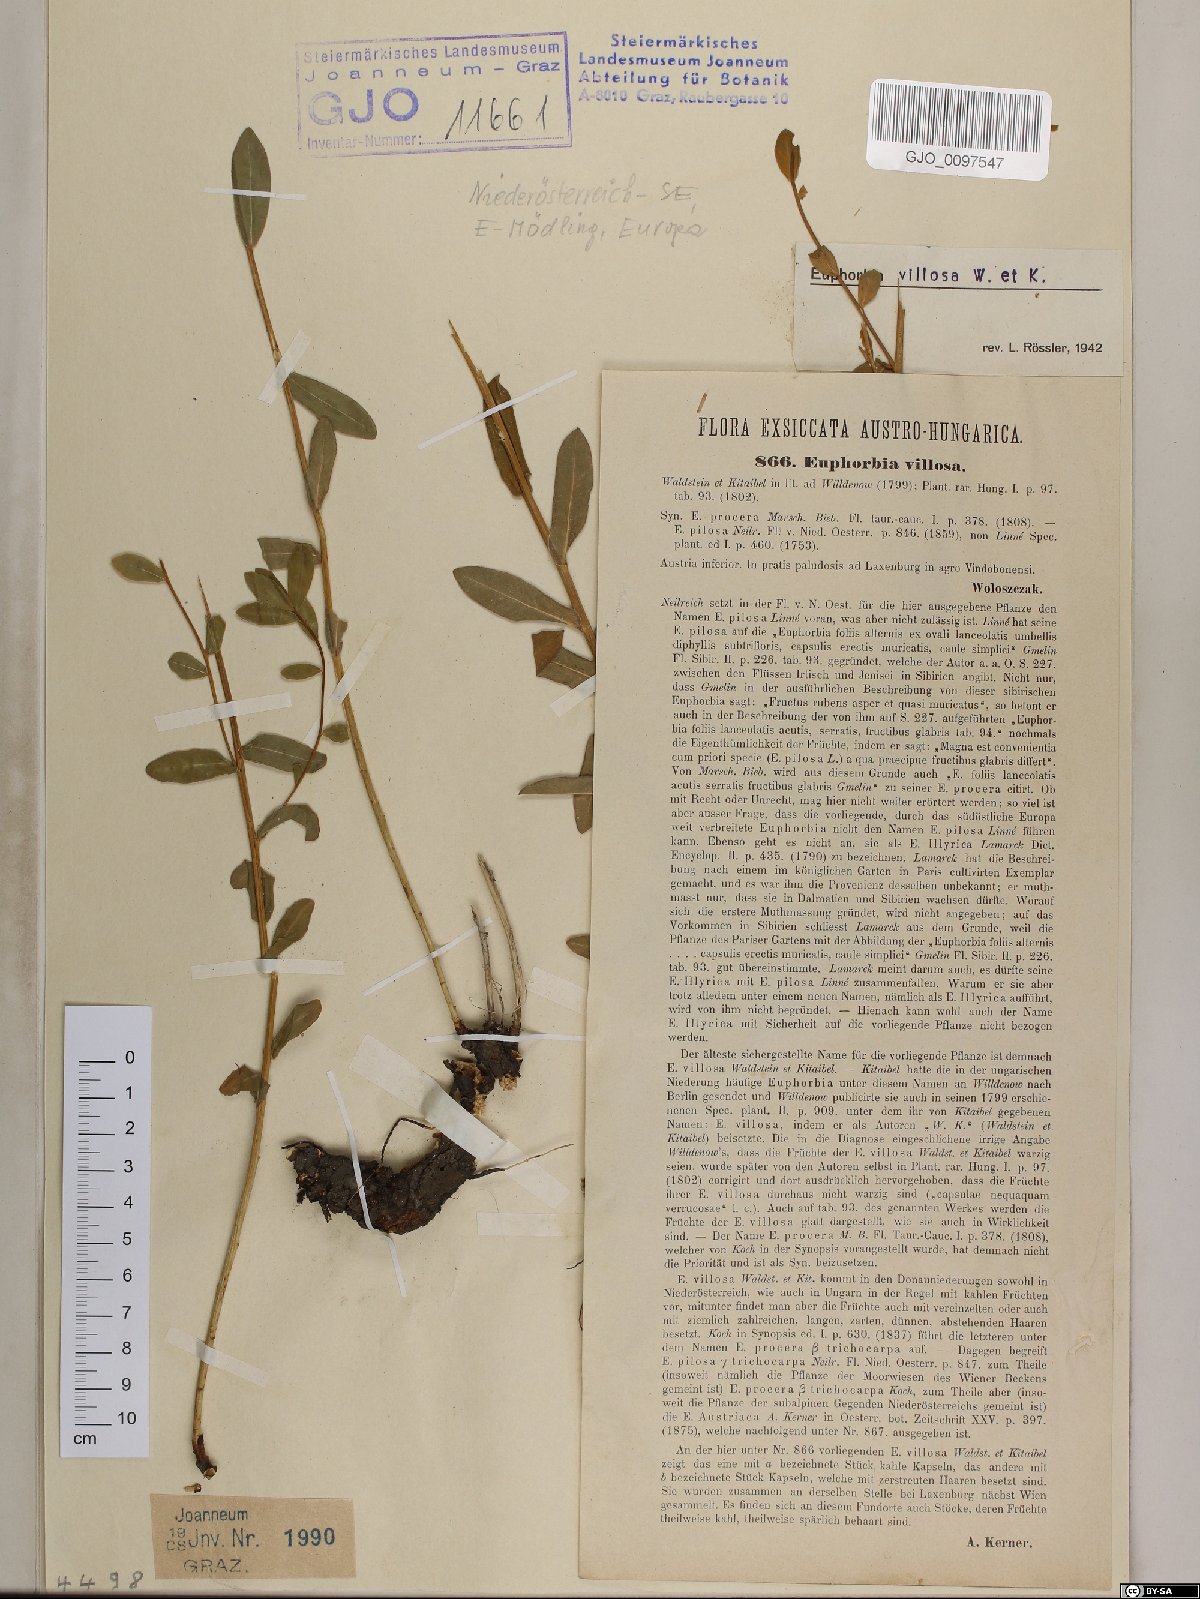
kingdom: Plantae
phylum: Tracheophyta
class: Magnoliopsida
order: Malpighiales
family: Euphorbiaceae
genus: Euphorbia
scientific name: Euphorbia illirica
